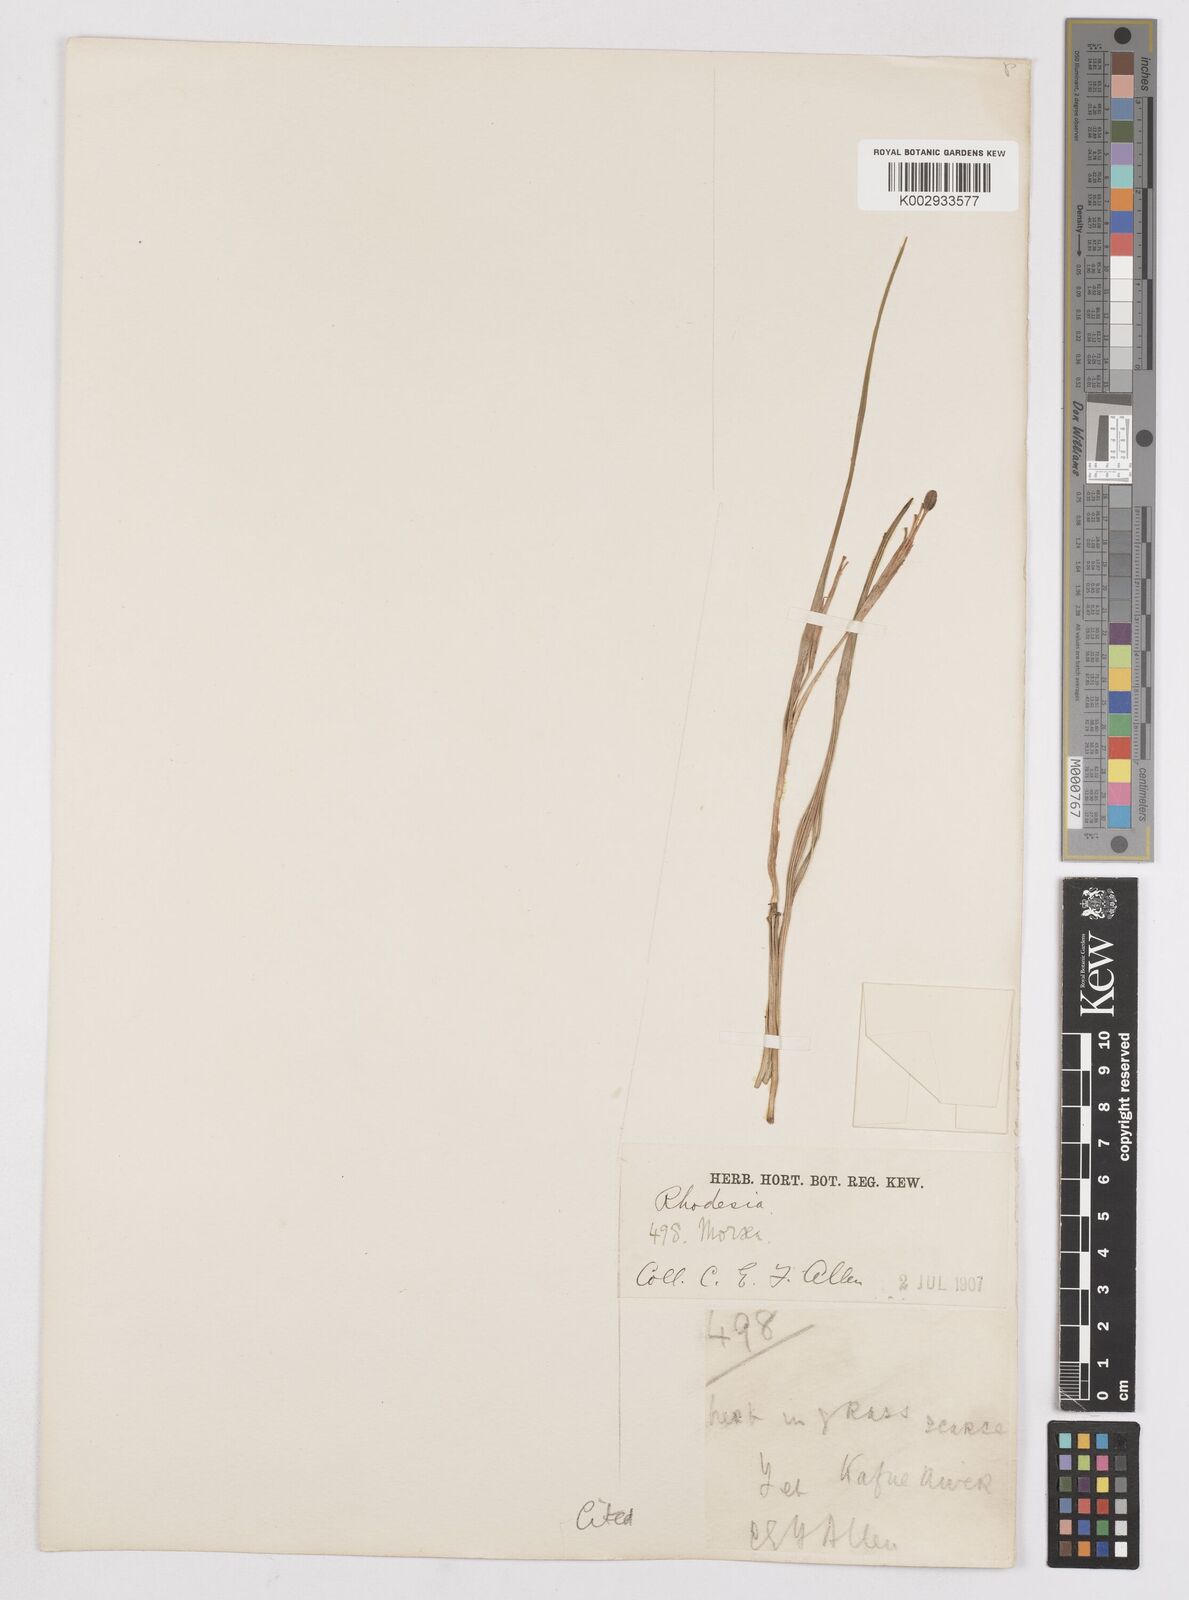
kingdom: Plantae
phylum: Tracheophyta
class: Liliopsida
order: Asparagales
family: Iridaceae
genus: Moraea
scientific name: Moraea carsonii
